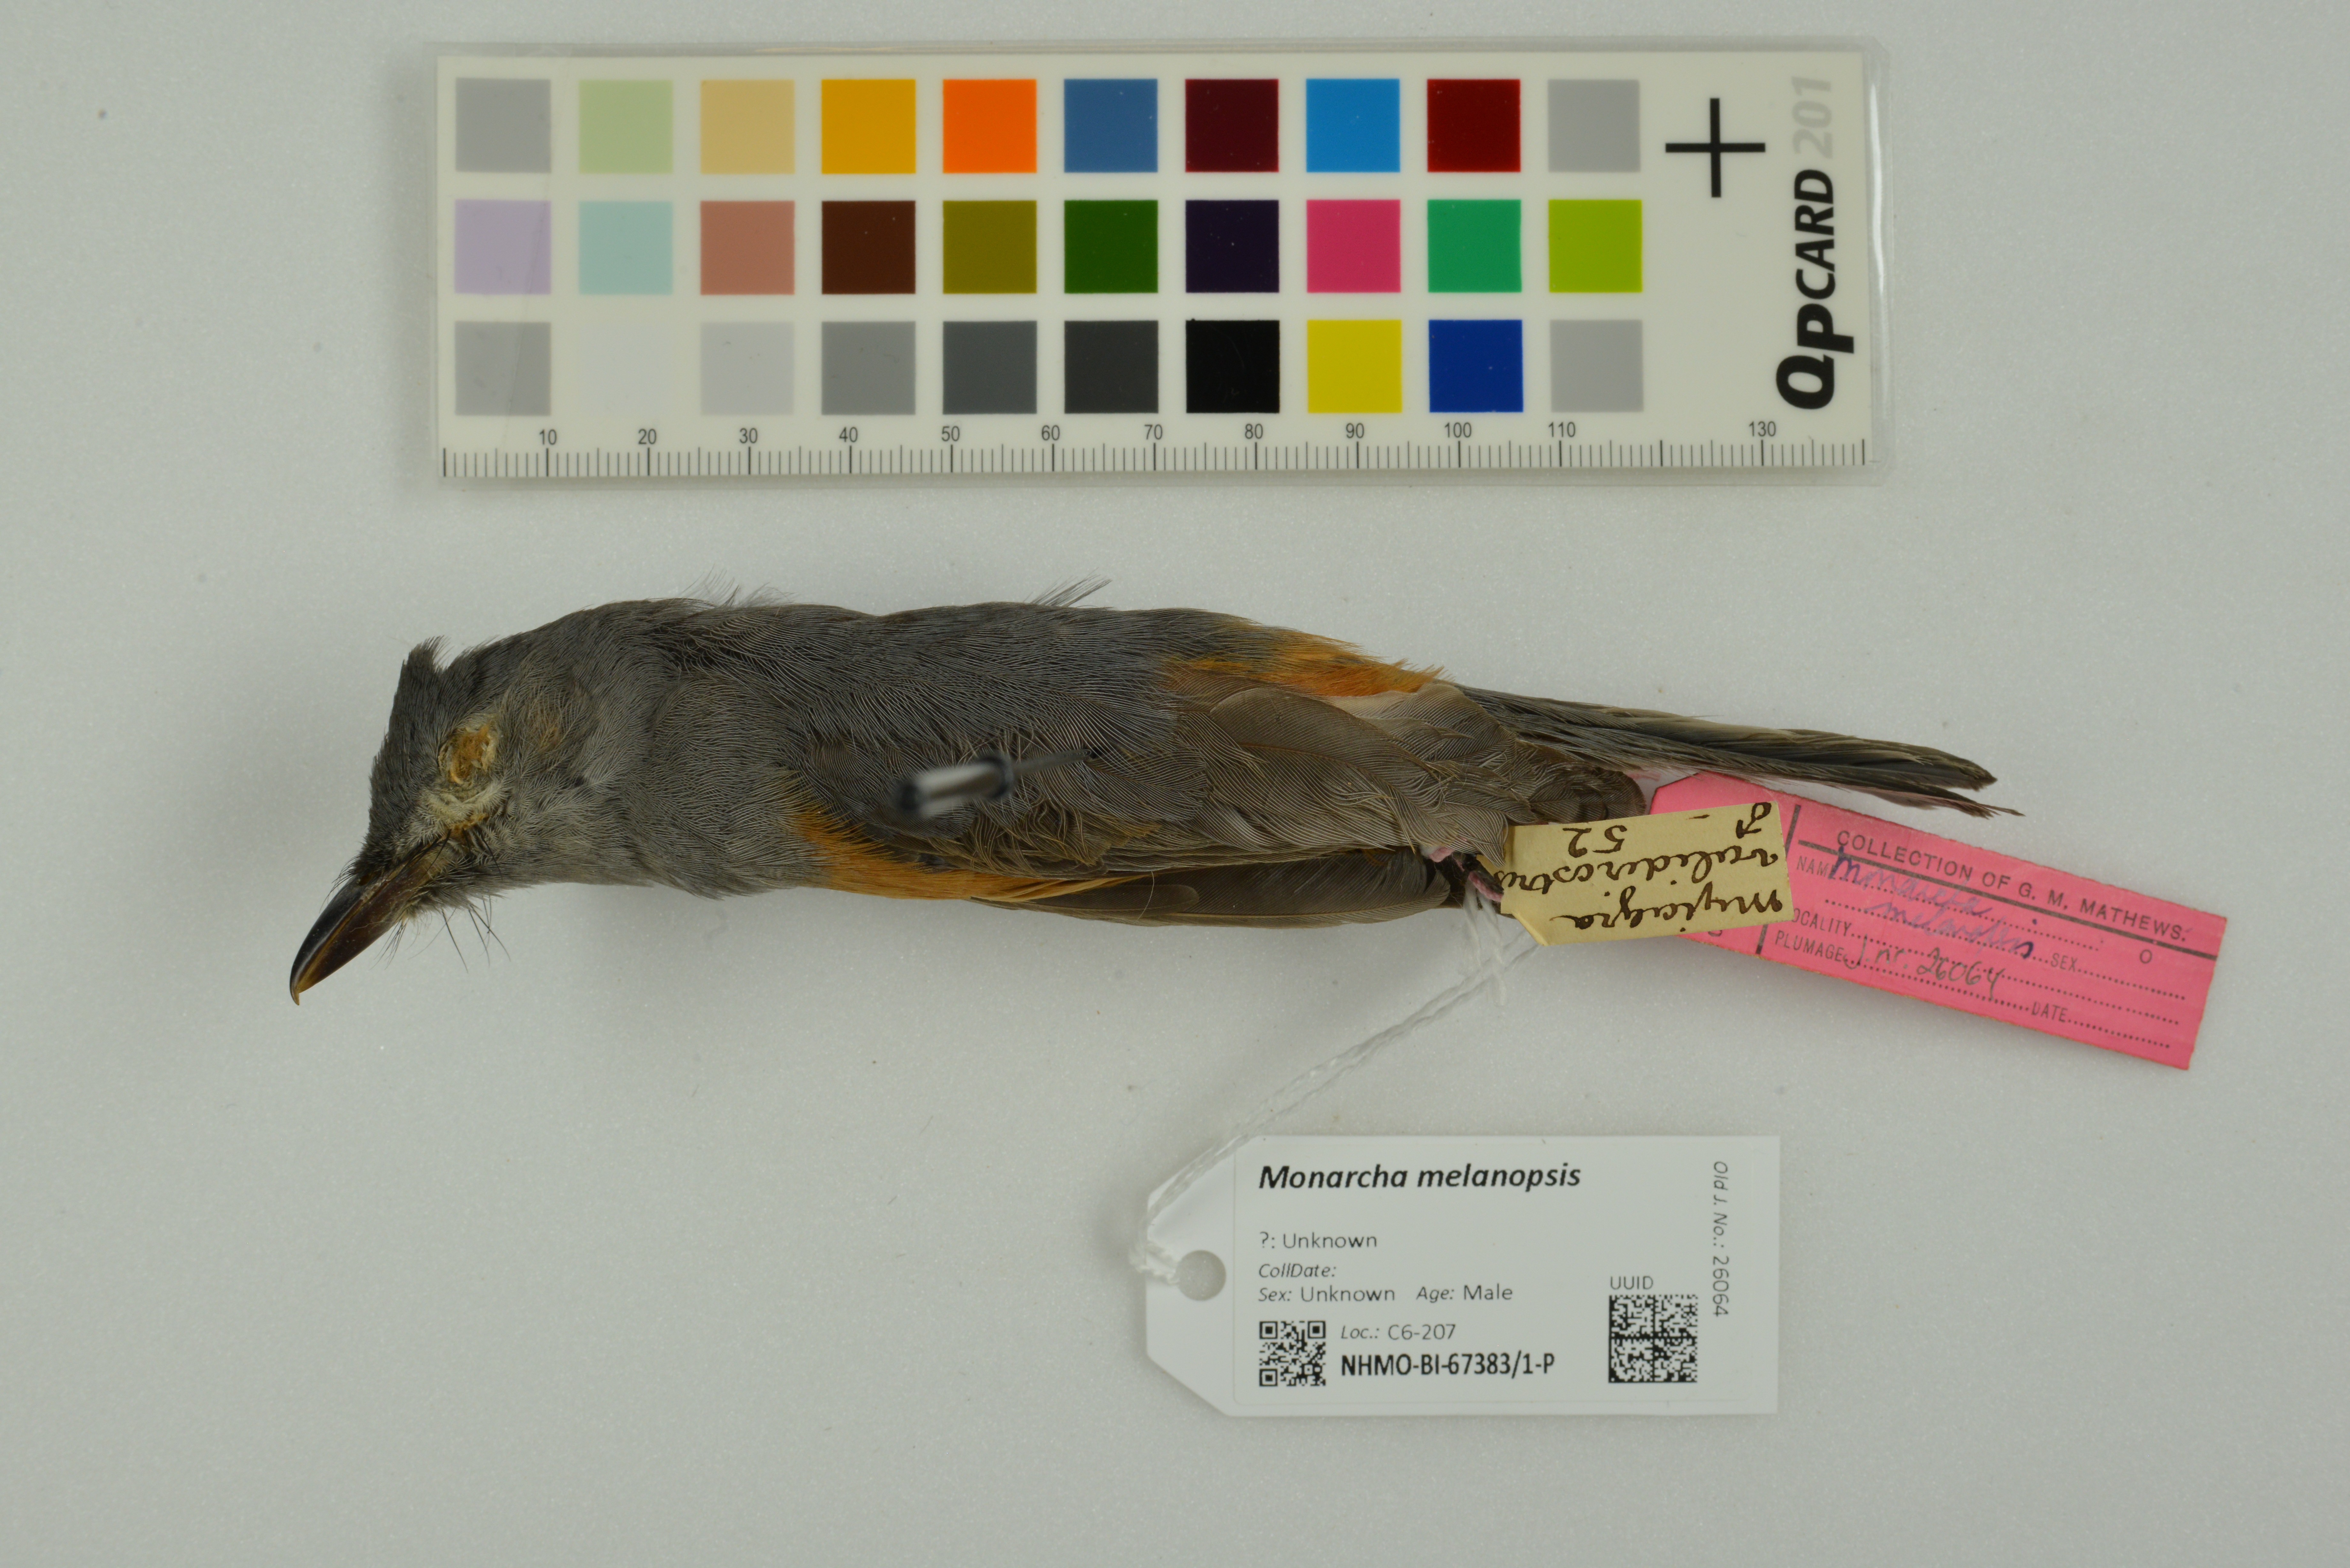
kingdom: Animalia
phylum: Chordata
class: Aves
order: Passeriformes
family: Monarchidae
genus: Monarcha
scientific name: Monarcha melanopsis
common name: Black-faced monarch
